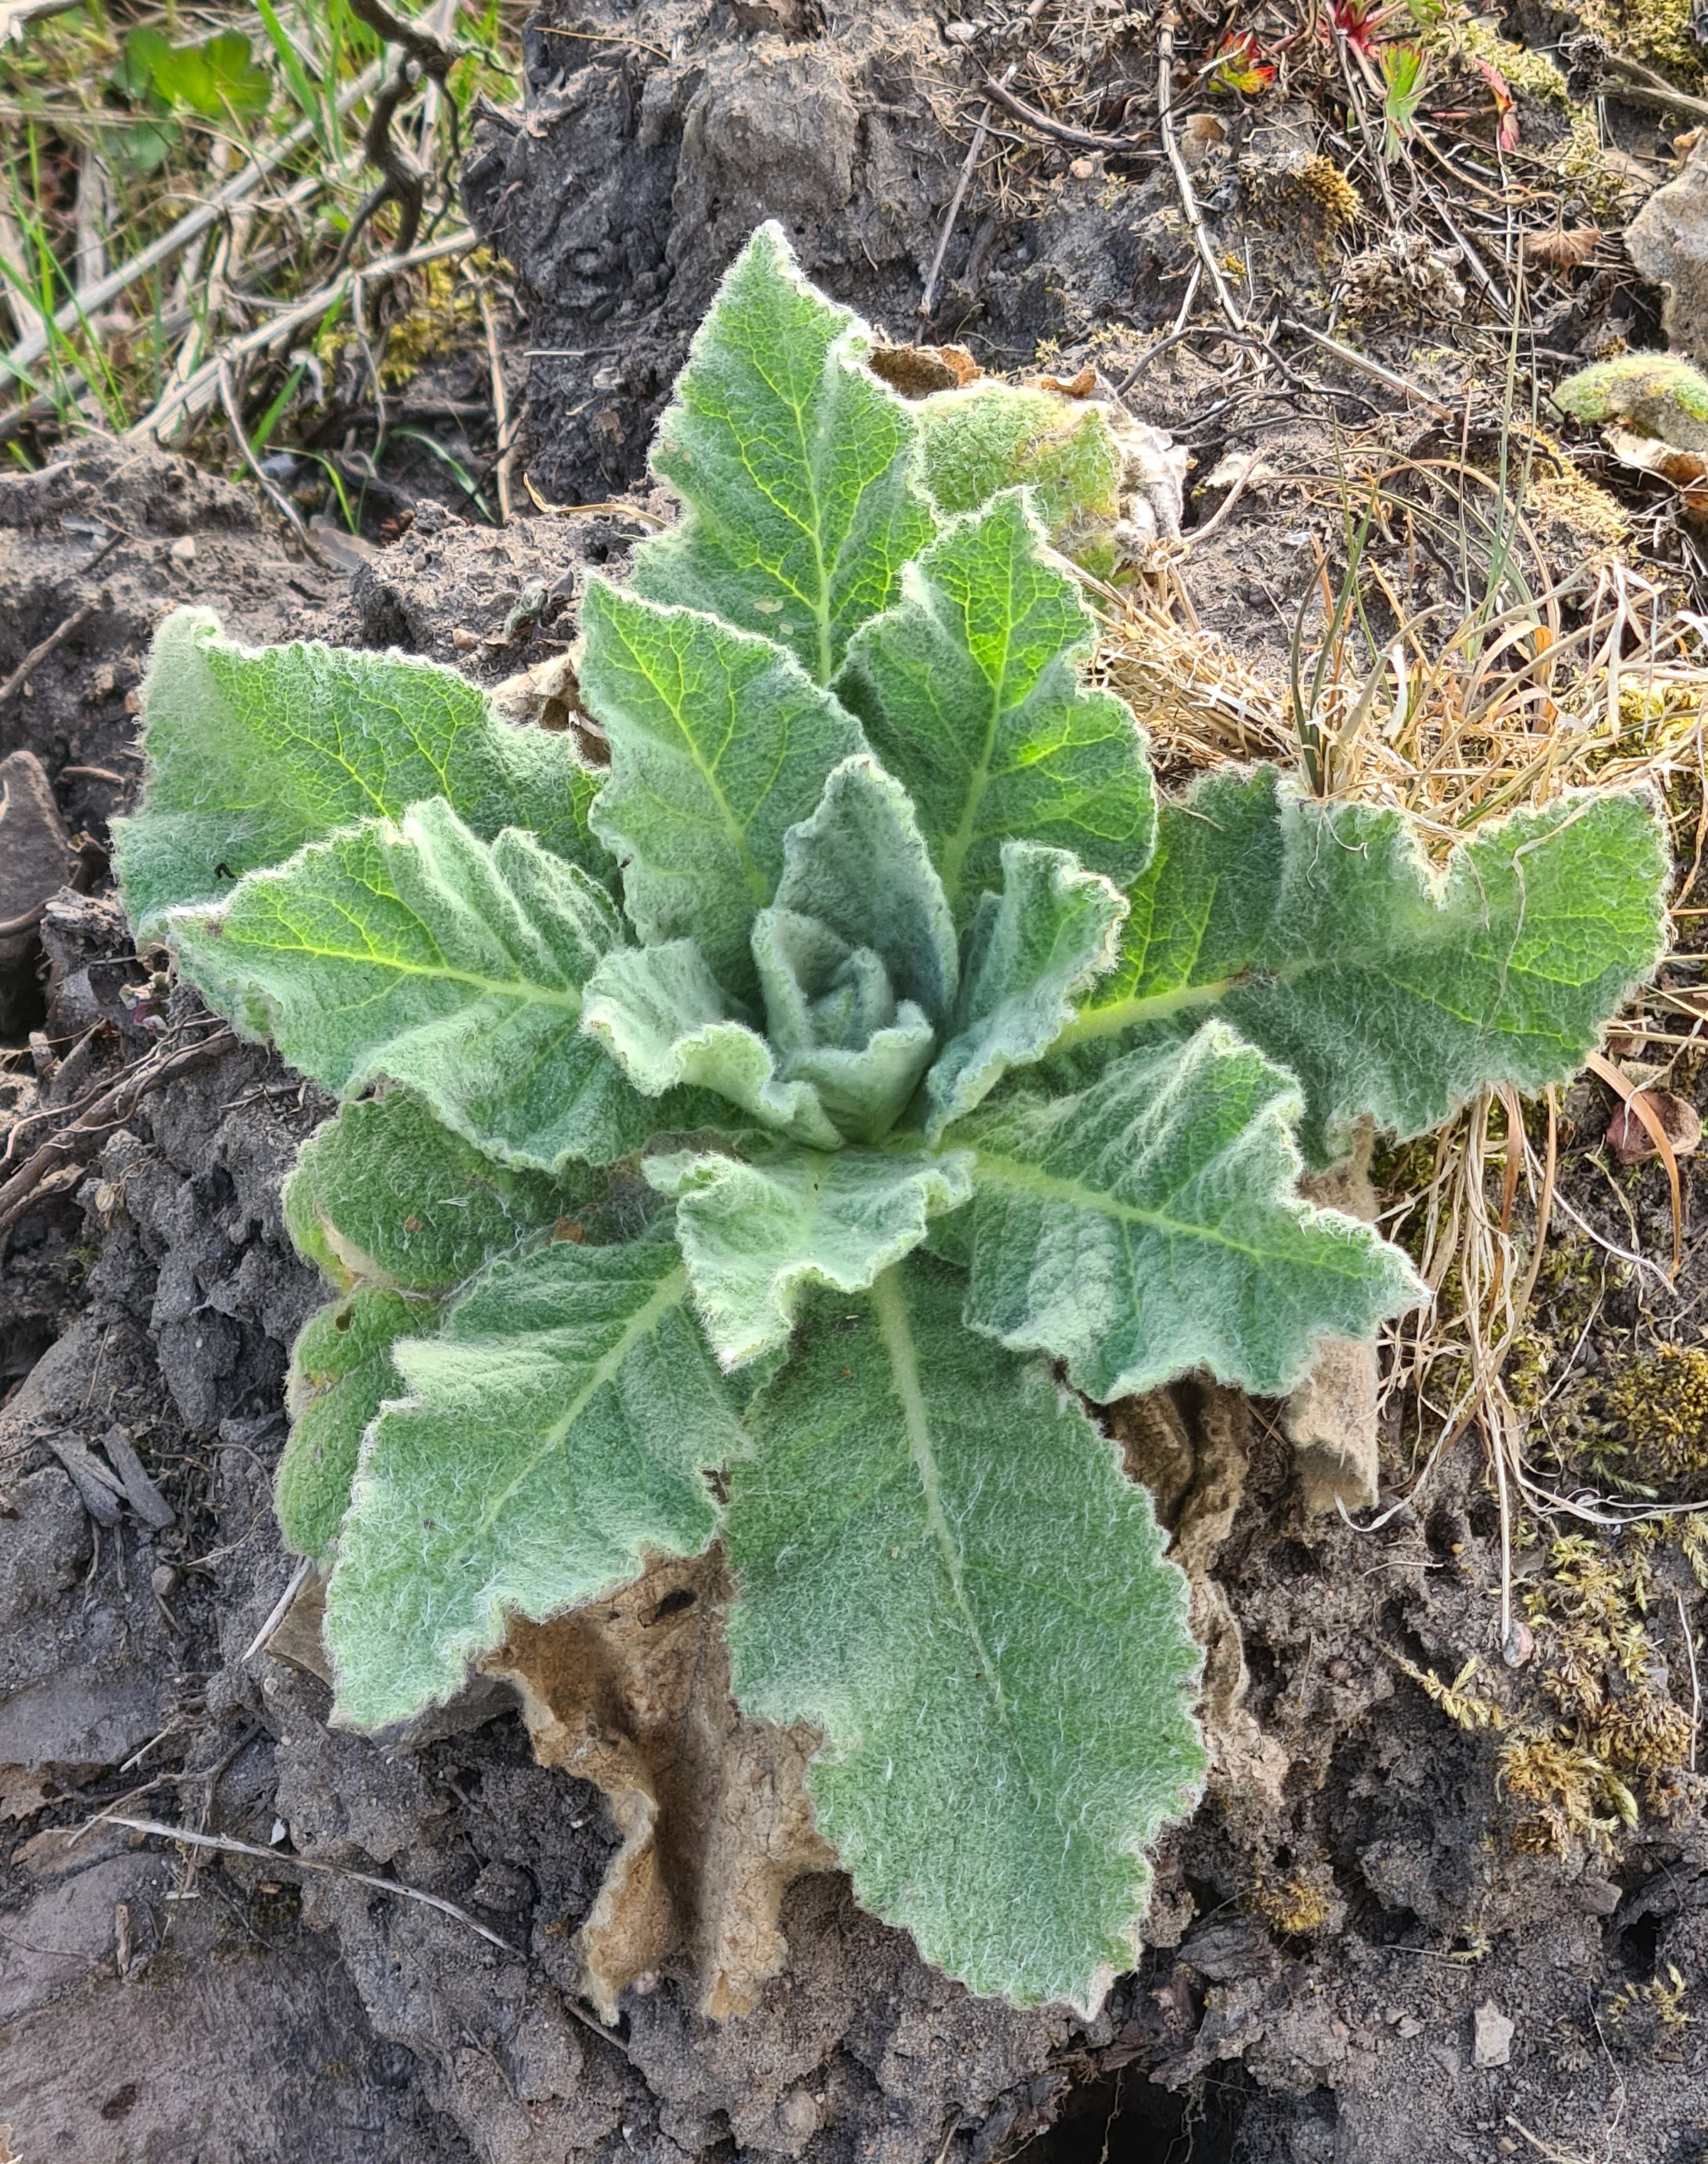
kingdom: Plantae
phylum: Tracheophyta
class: Magnoliopsida
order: Lamiales
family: Scrophulariaceae
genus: Verbascum
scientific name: Verbascum thapsus
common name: Filtbladet kongelys
